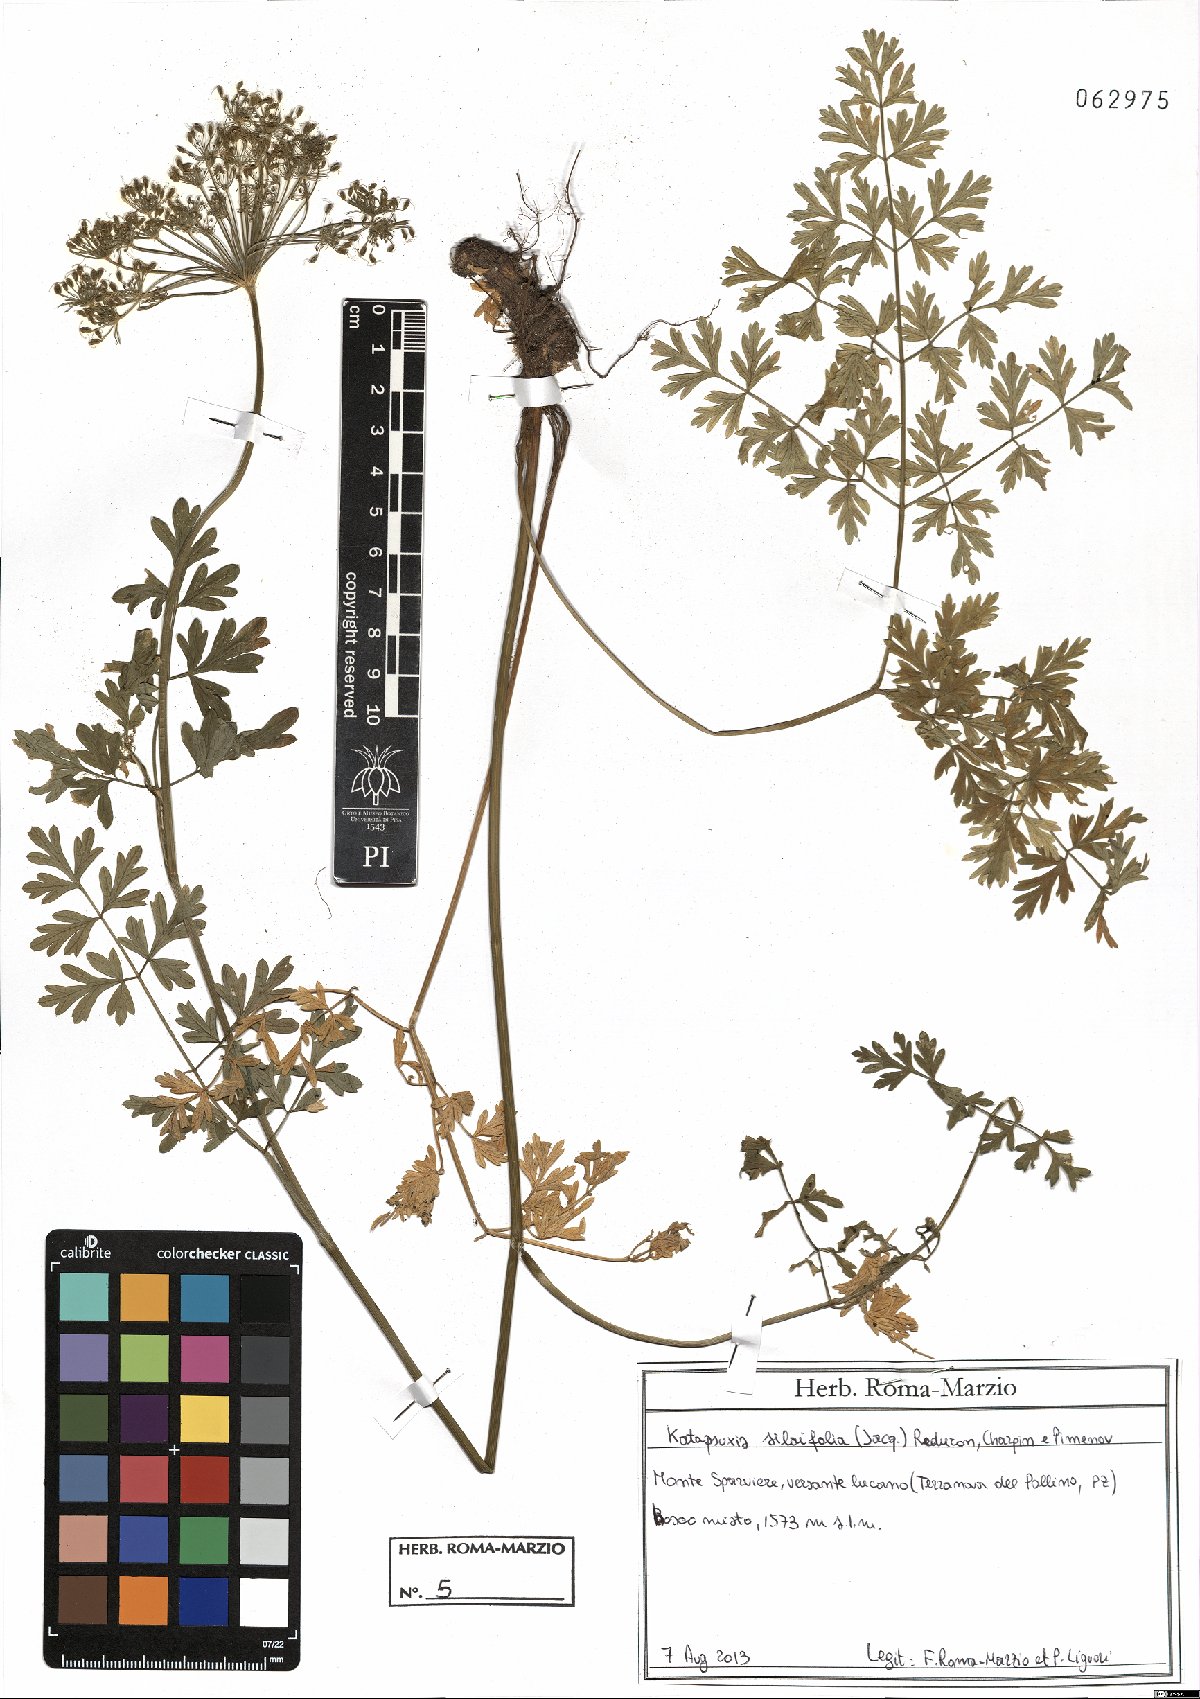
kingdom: Plantae
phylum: Tracheophyta
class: Magnoliopsida
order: Apiales
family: Apiaceae
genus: Katapsuxis
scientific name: Katapsuxis silaifolia
